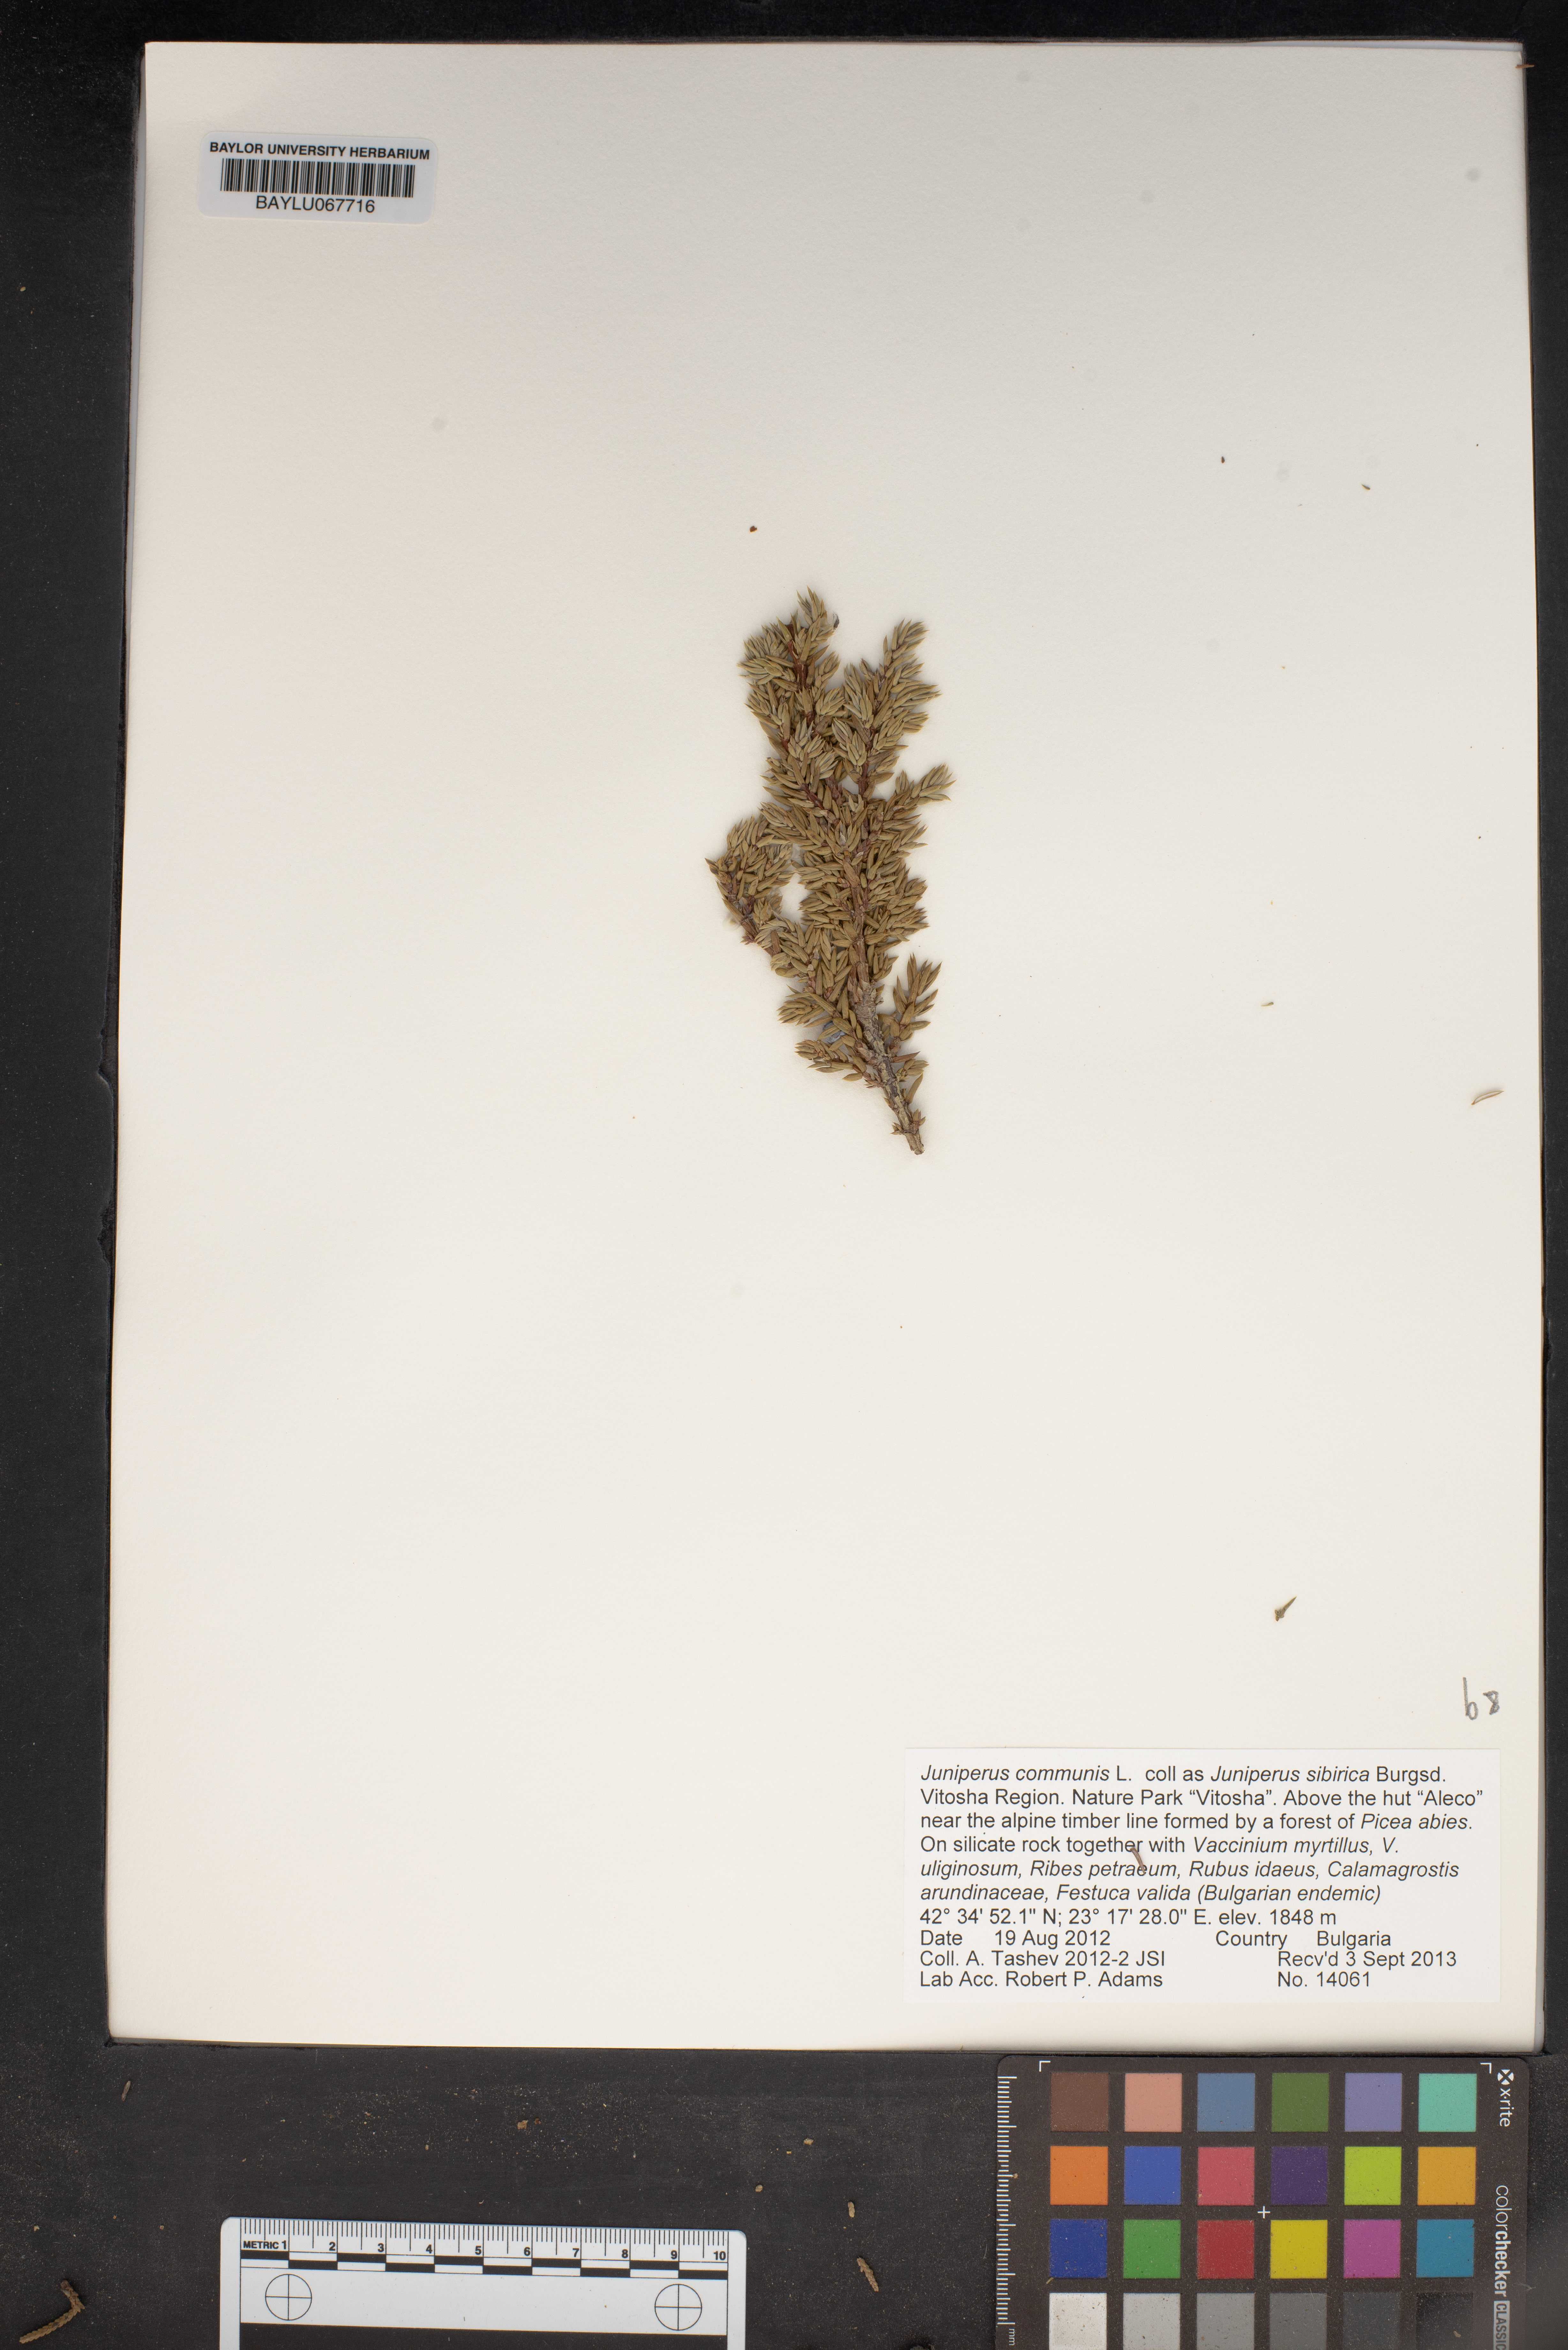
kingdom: Plantae
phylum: Tracheophyta
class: Pinopsida
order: Pinales
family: Cupressaceae
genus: Juniperus
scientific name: Juniperus communis
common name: Common juniper
